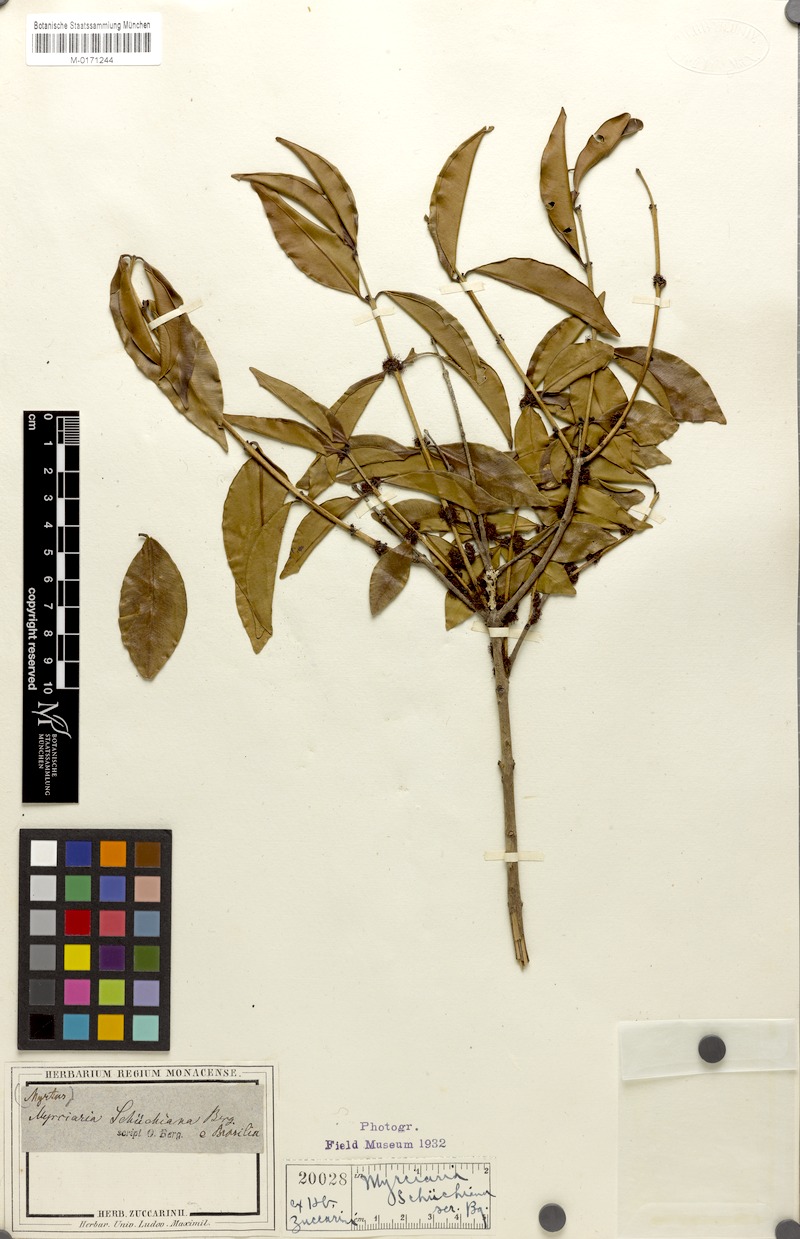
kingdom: Plantae
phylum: Tracheophyta
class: Magnoliopsida
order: Myrtales
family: Myrtaceae
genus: Myrciaria
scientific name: Myrciaria floribunda
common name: Guavaberry
